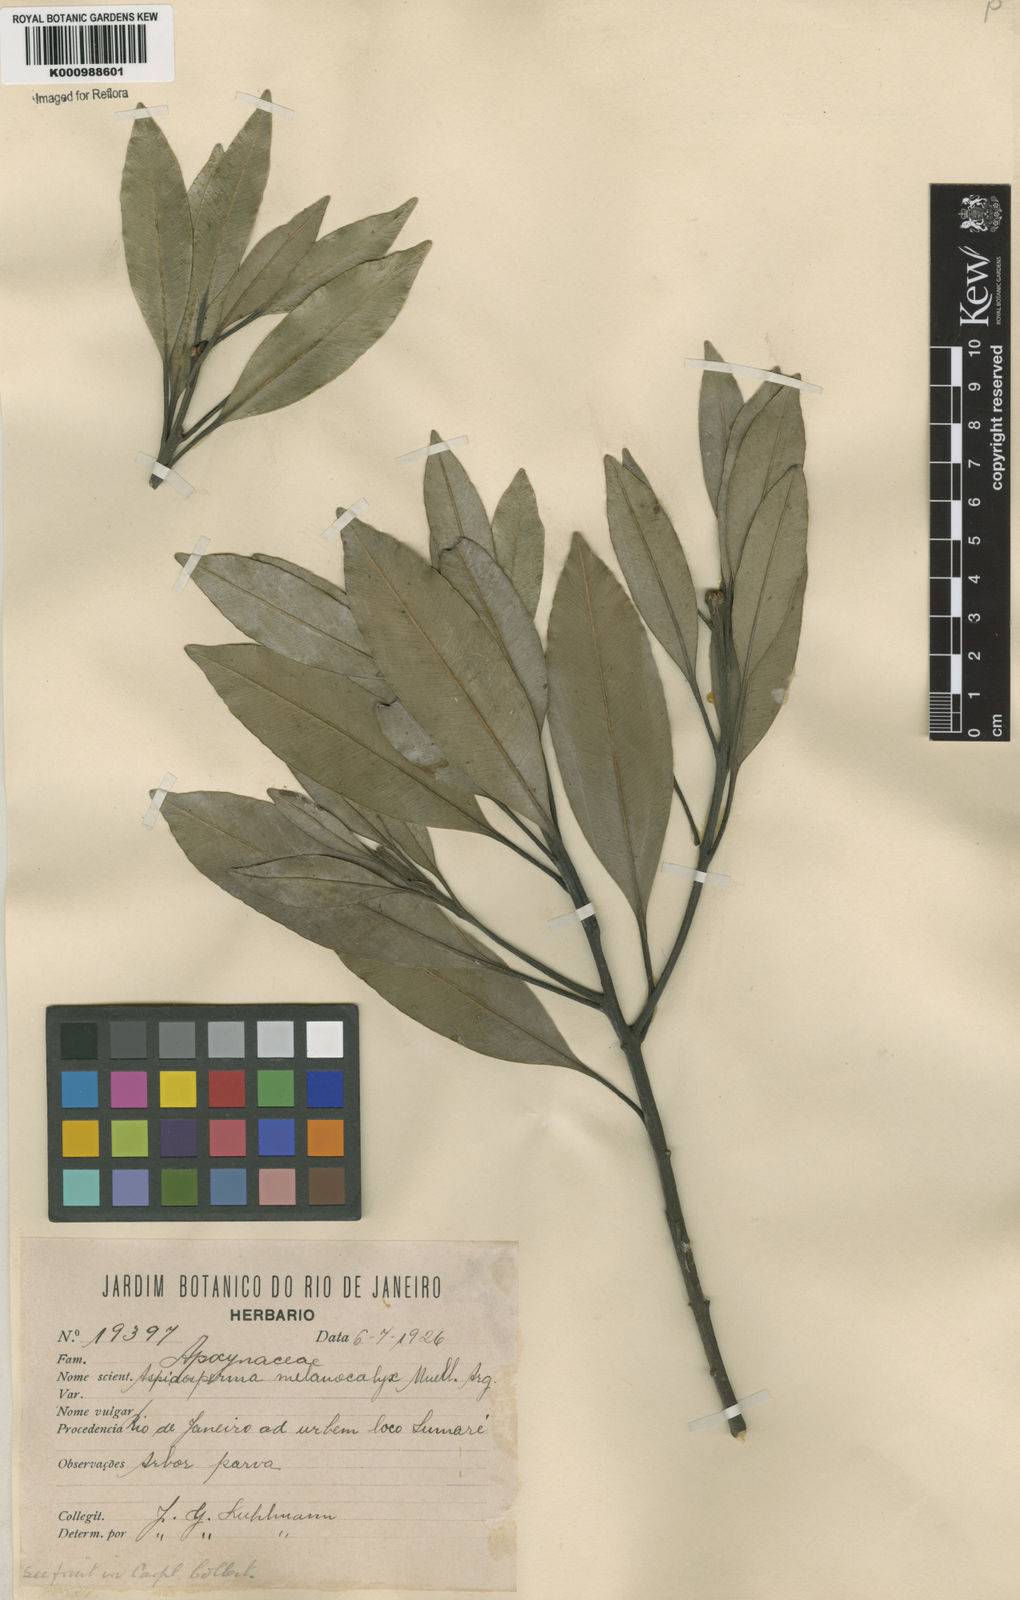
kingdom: Plantae
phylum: Tracheophyta
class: Magnoliopsida
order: Gentianales
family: Apocynaceae
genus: Aspidosperma
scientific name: Aspidosperma
